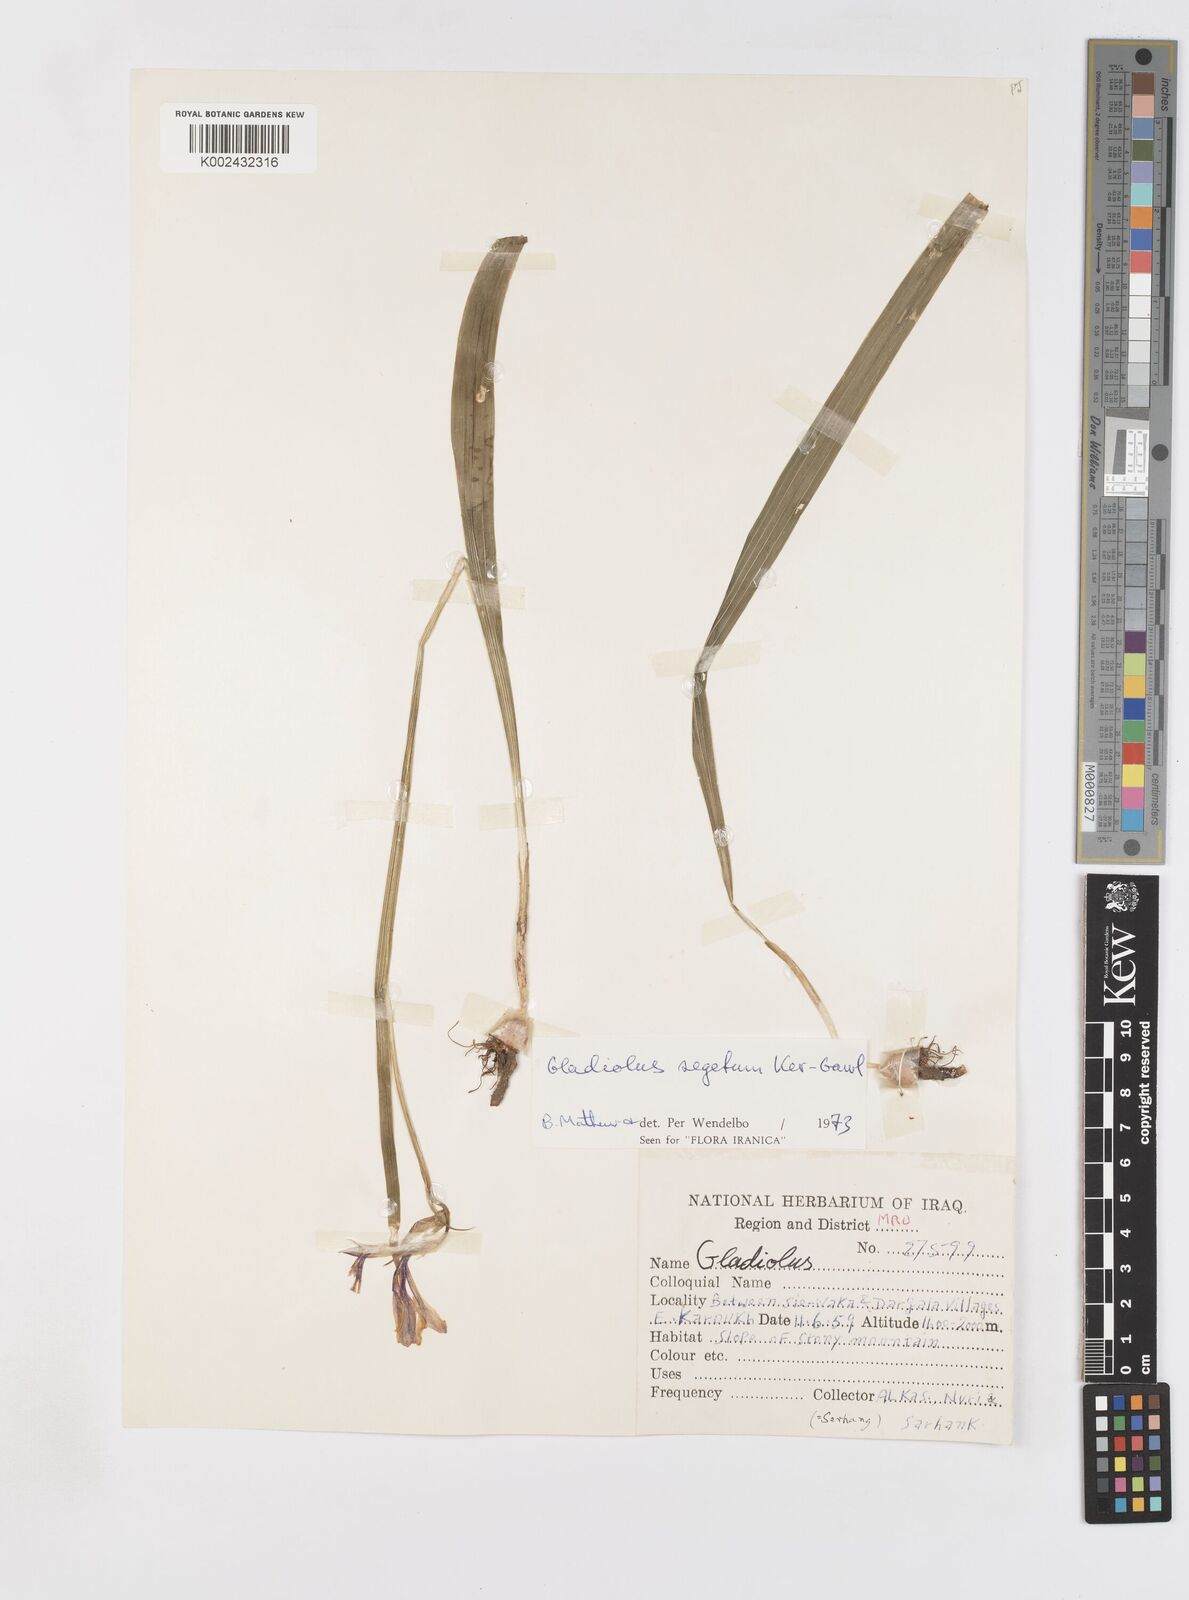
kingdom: Plantae
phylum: Tracheophyta
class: Liliopsida
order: Asparagales
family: Iridaceae
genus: Gladiolus
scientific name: Gladiolus italicus
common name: Field gladiolus
